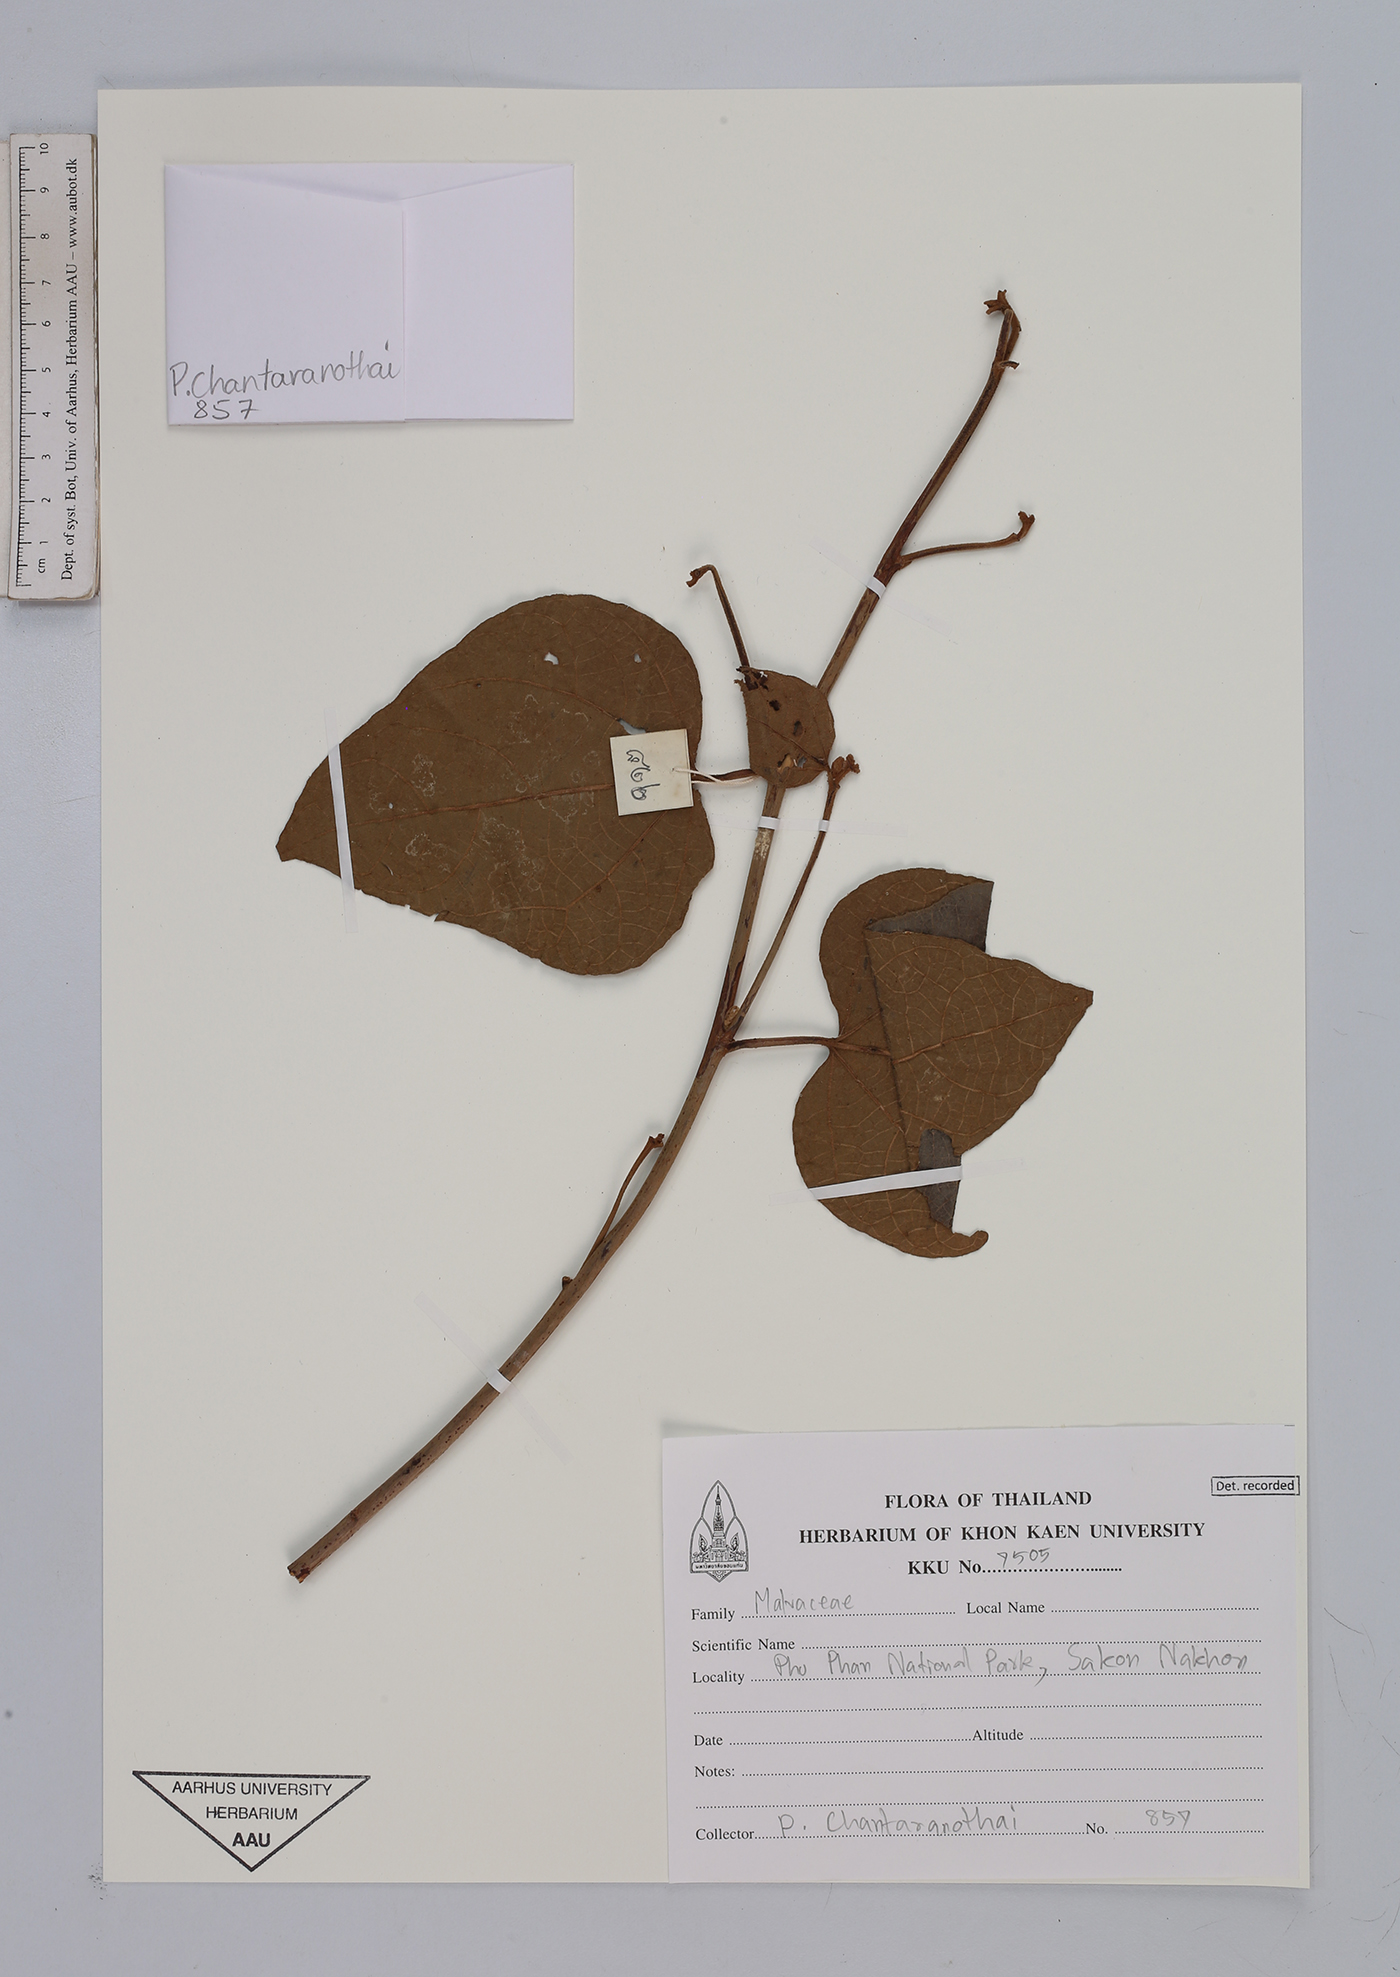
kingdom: Plantae
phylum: Tracheophyta
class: Magnoliopsida
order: Malvales
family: Malvaceae
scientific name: Malvaceae
